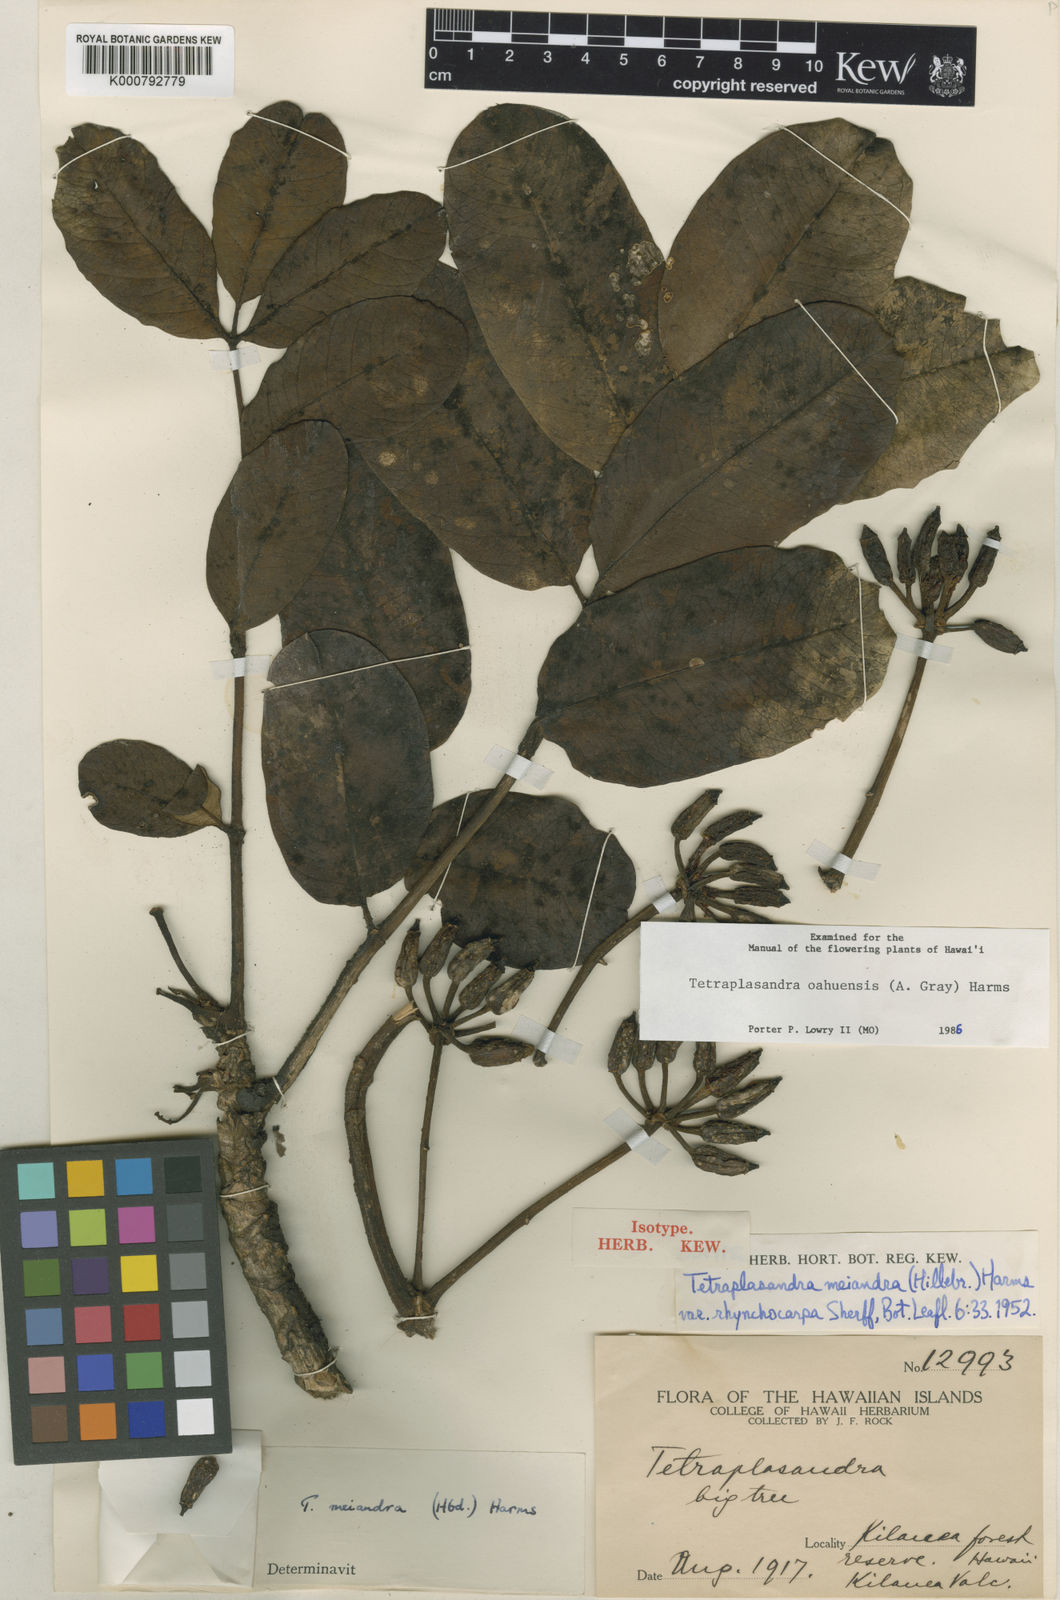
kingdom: Plantae
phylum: Tracheophyta
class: Magnoliopsida
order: Apiales
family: Araliaceae
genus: Polyscias
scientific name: Polyscias oahuensis
